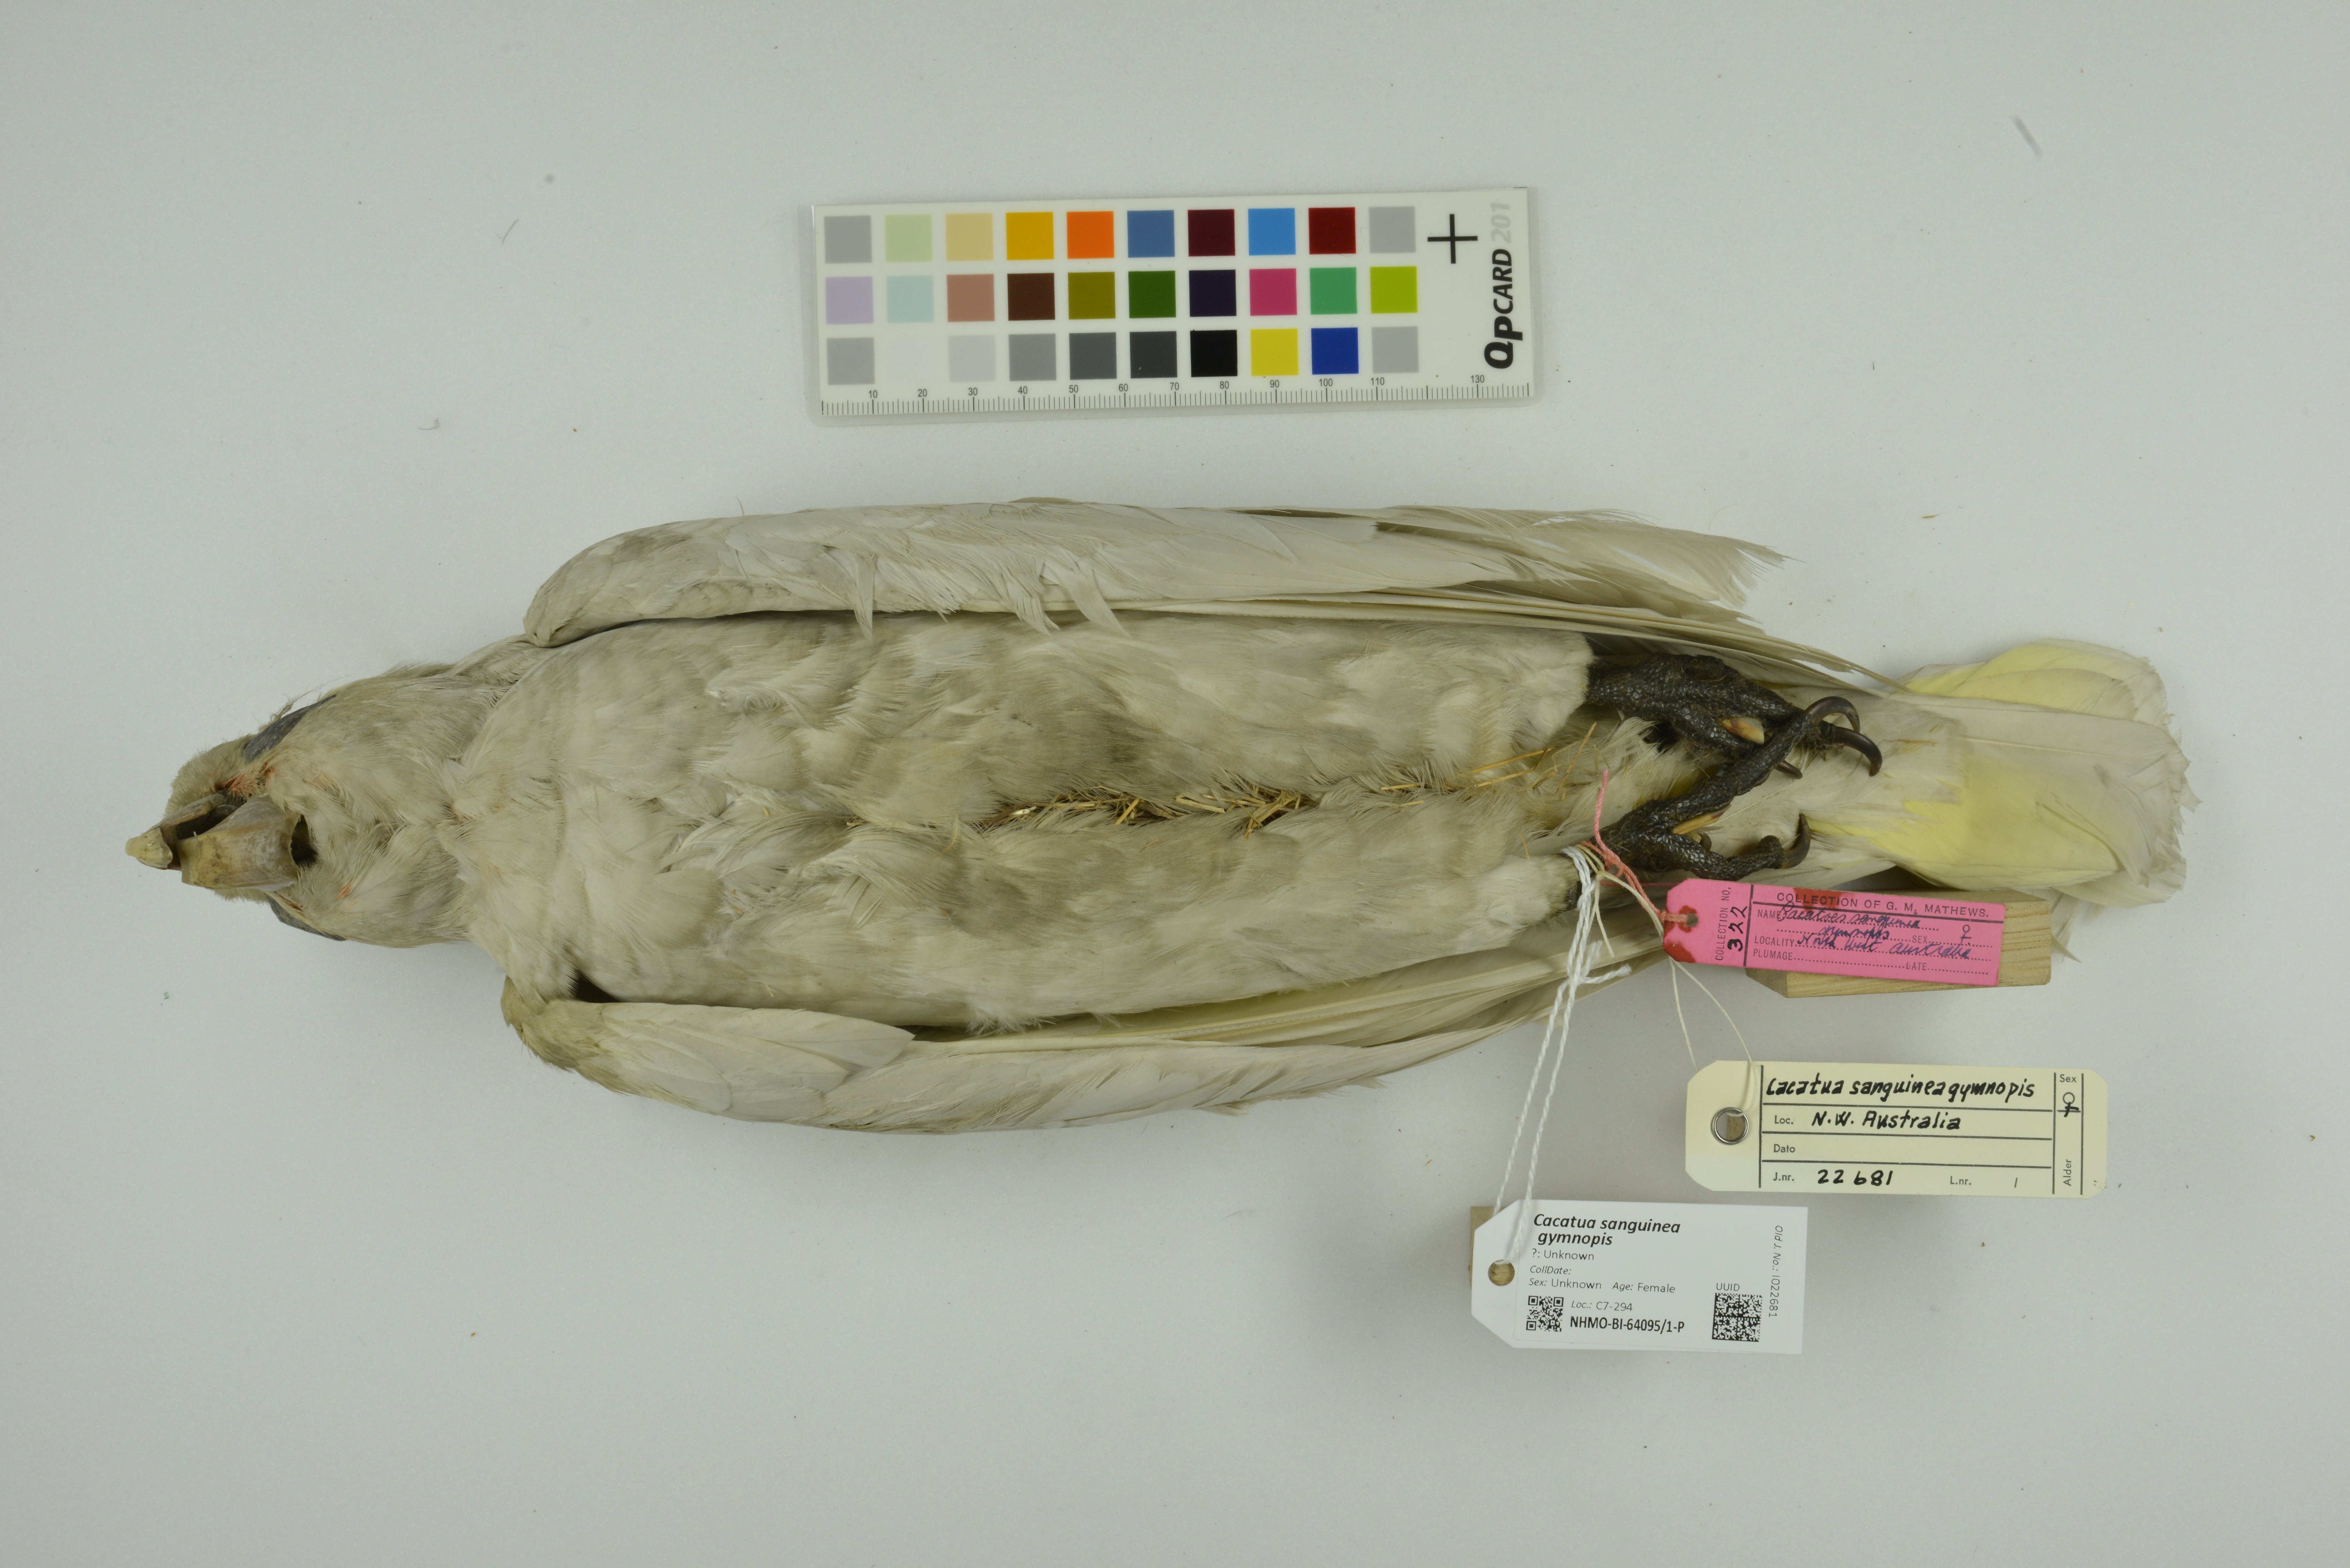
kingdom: Animalia
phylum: Chordata
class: Aves
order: Psittaciformes
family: Psittacidae
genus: Cacatua
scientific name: Cacatua sanguinea
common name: Little corella
